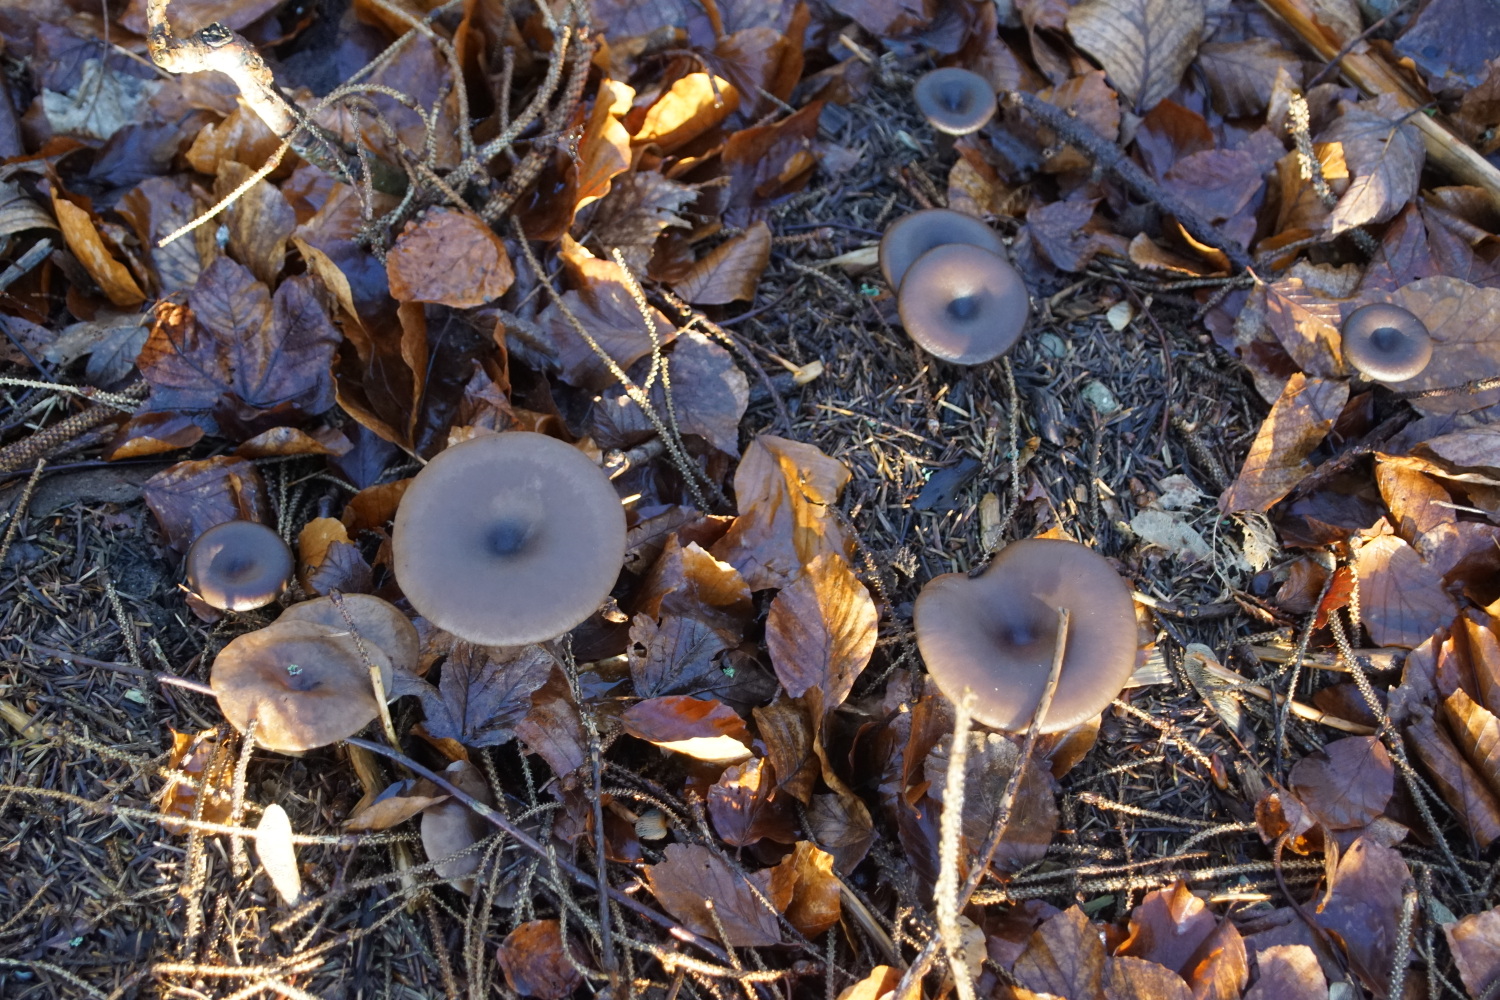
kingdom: Fungi
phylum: Basidiomycota
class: Agaricomycetes
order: Agaricales
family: Pseudoclitocybaceae
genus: Pseudoclitocybe
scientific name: Pseudoclitocybe cyathiformis
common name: almindelig bægertragthat
